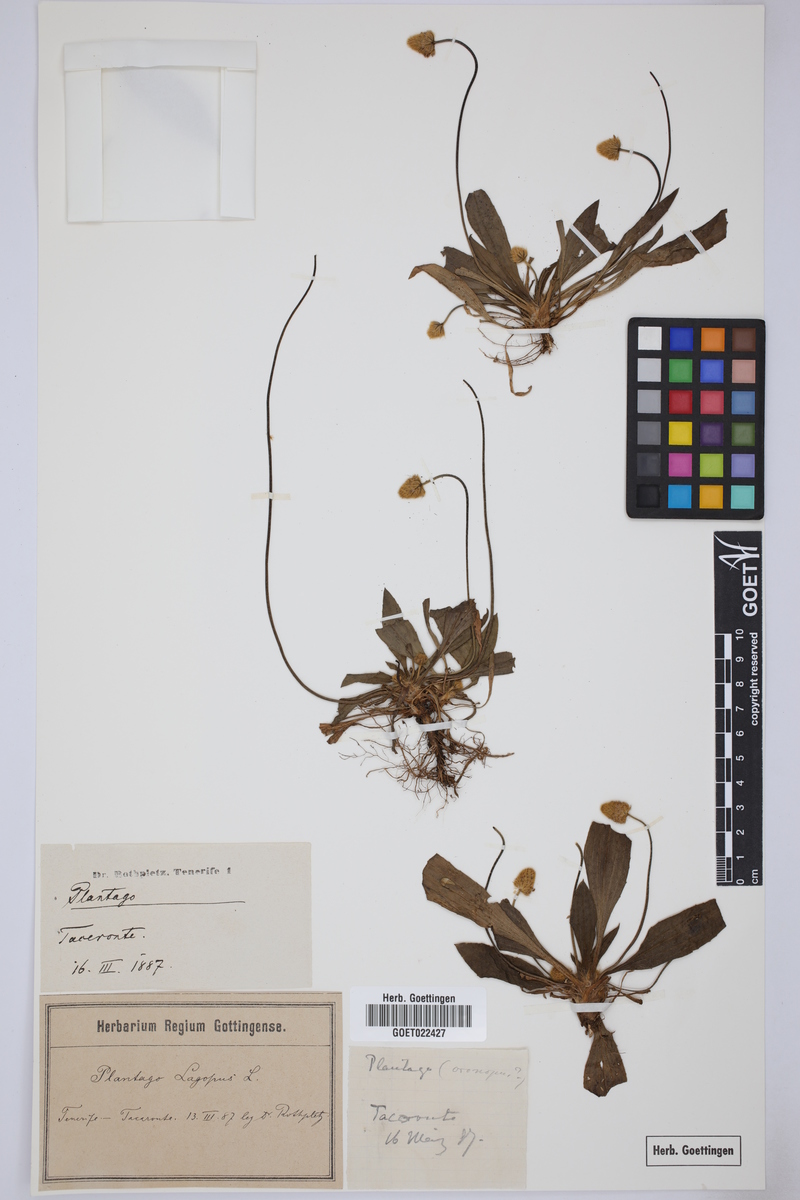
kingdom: Plantae
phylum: Tracheophyta
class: Magnoliopsida
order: Lamiales
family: Plantaginaceae
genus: Plantago
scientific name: Plantago lagopus
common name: Hare-foot plantain
